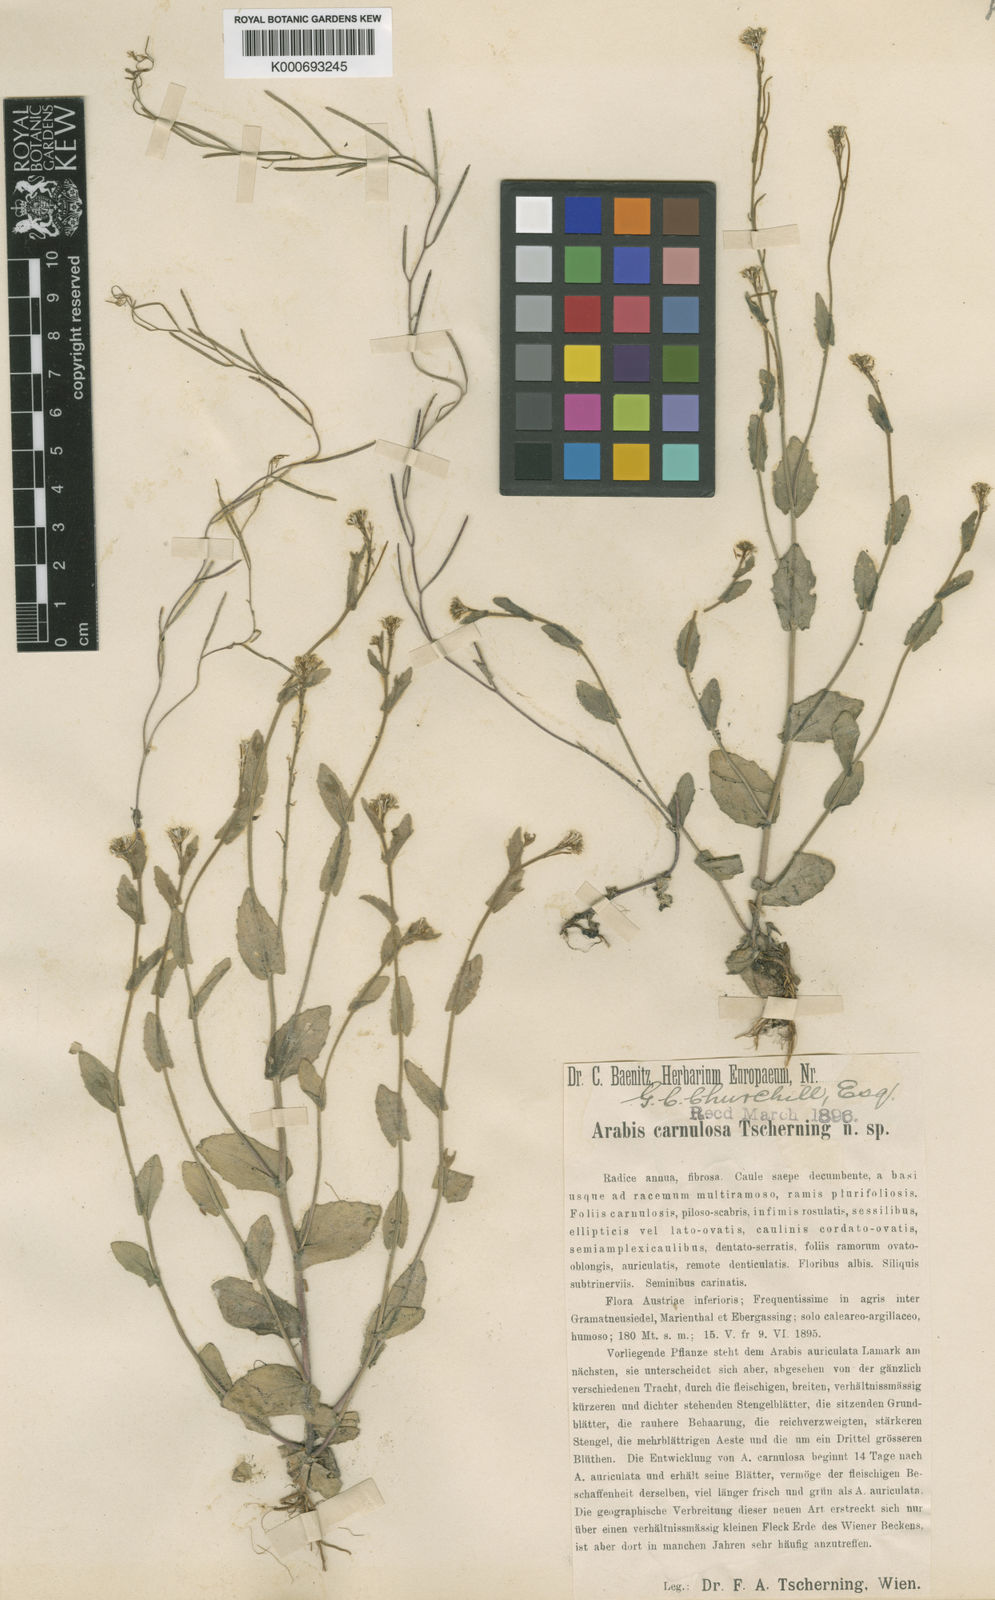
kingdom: Plantae
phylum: Tracheophyta
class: Magnoliopsida
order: Brassicales
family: Brassicaceae
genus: Arabis
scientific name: Arabis auriculata
